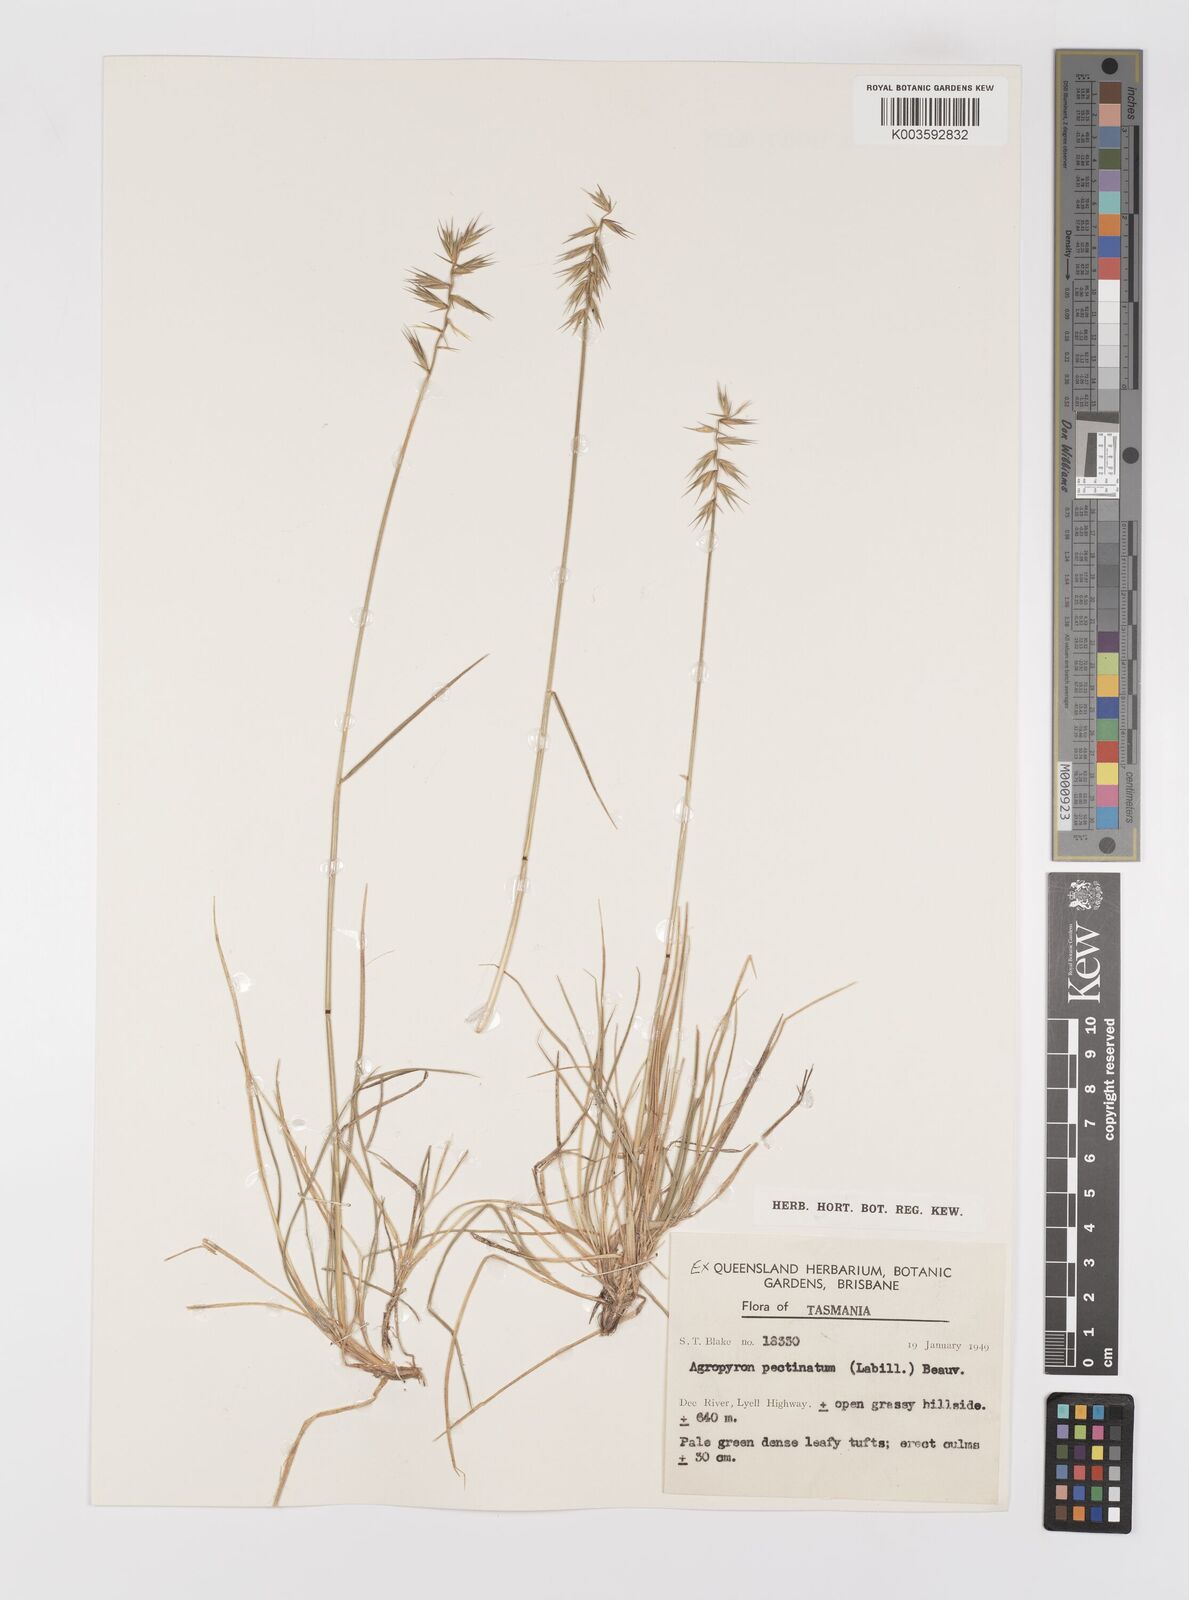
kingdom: Plantae
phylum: Tracheophyta
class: Liliopsida
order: Poales
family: Poaceae
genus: Australopyrum
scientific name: Australopyrum pectinatum
